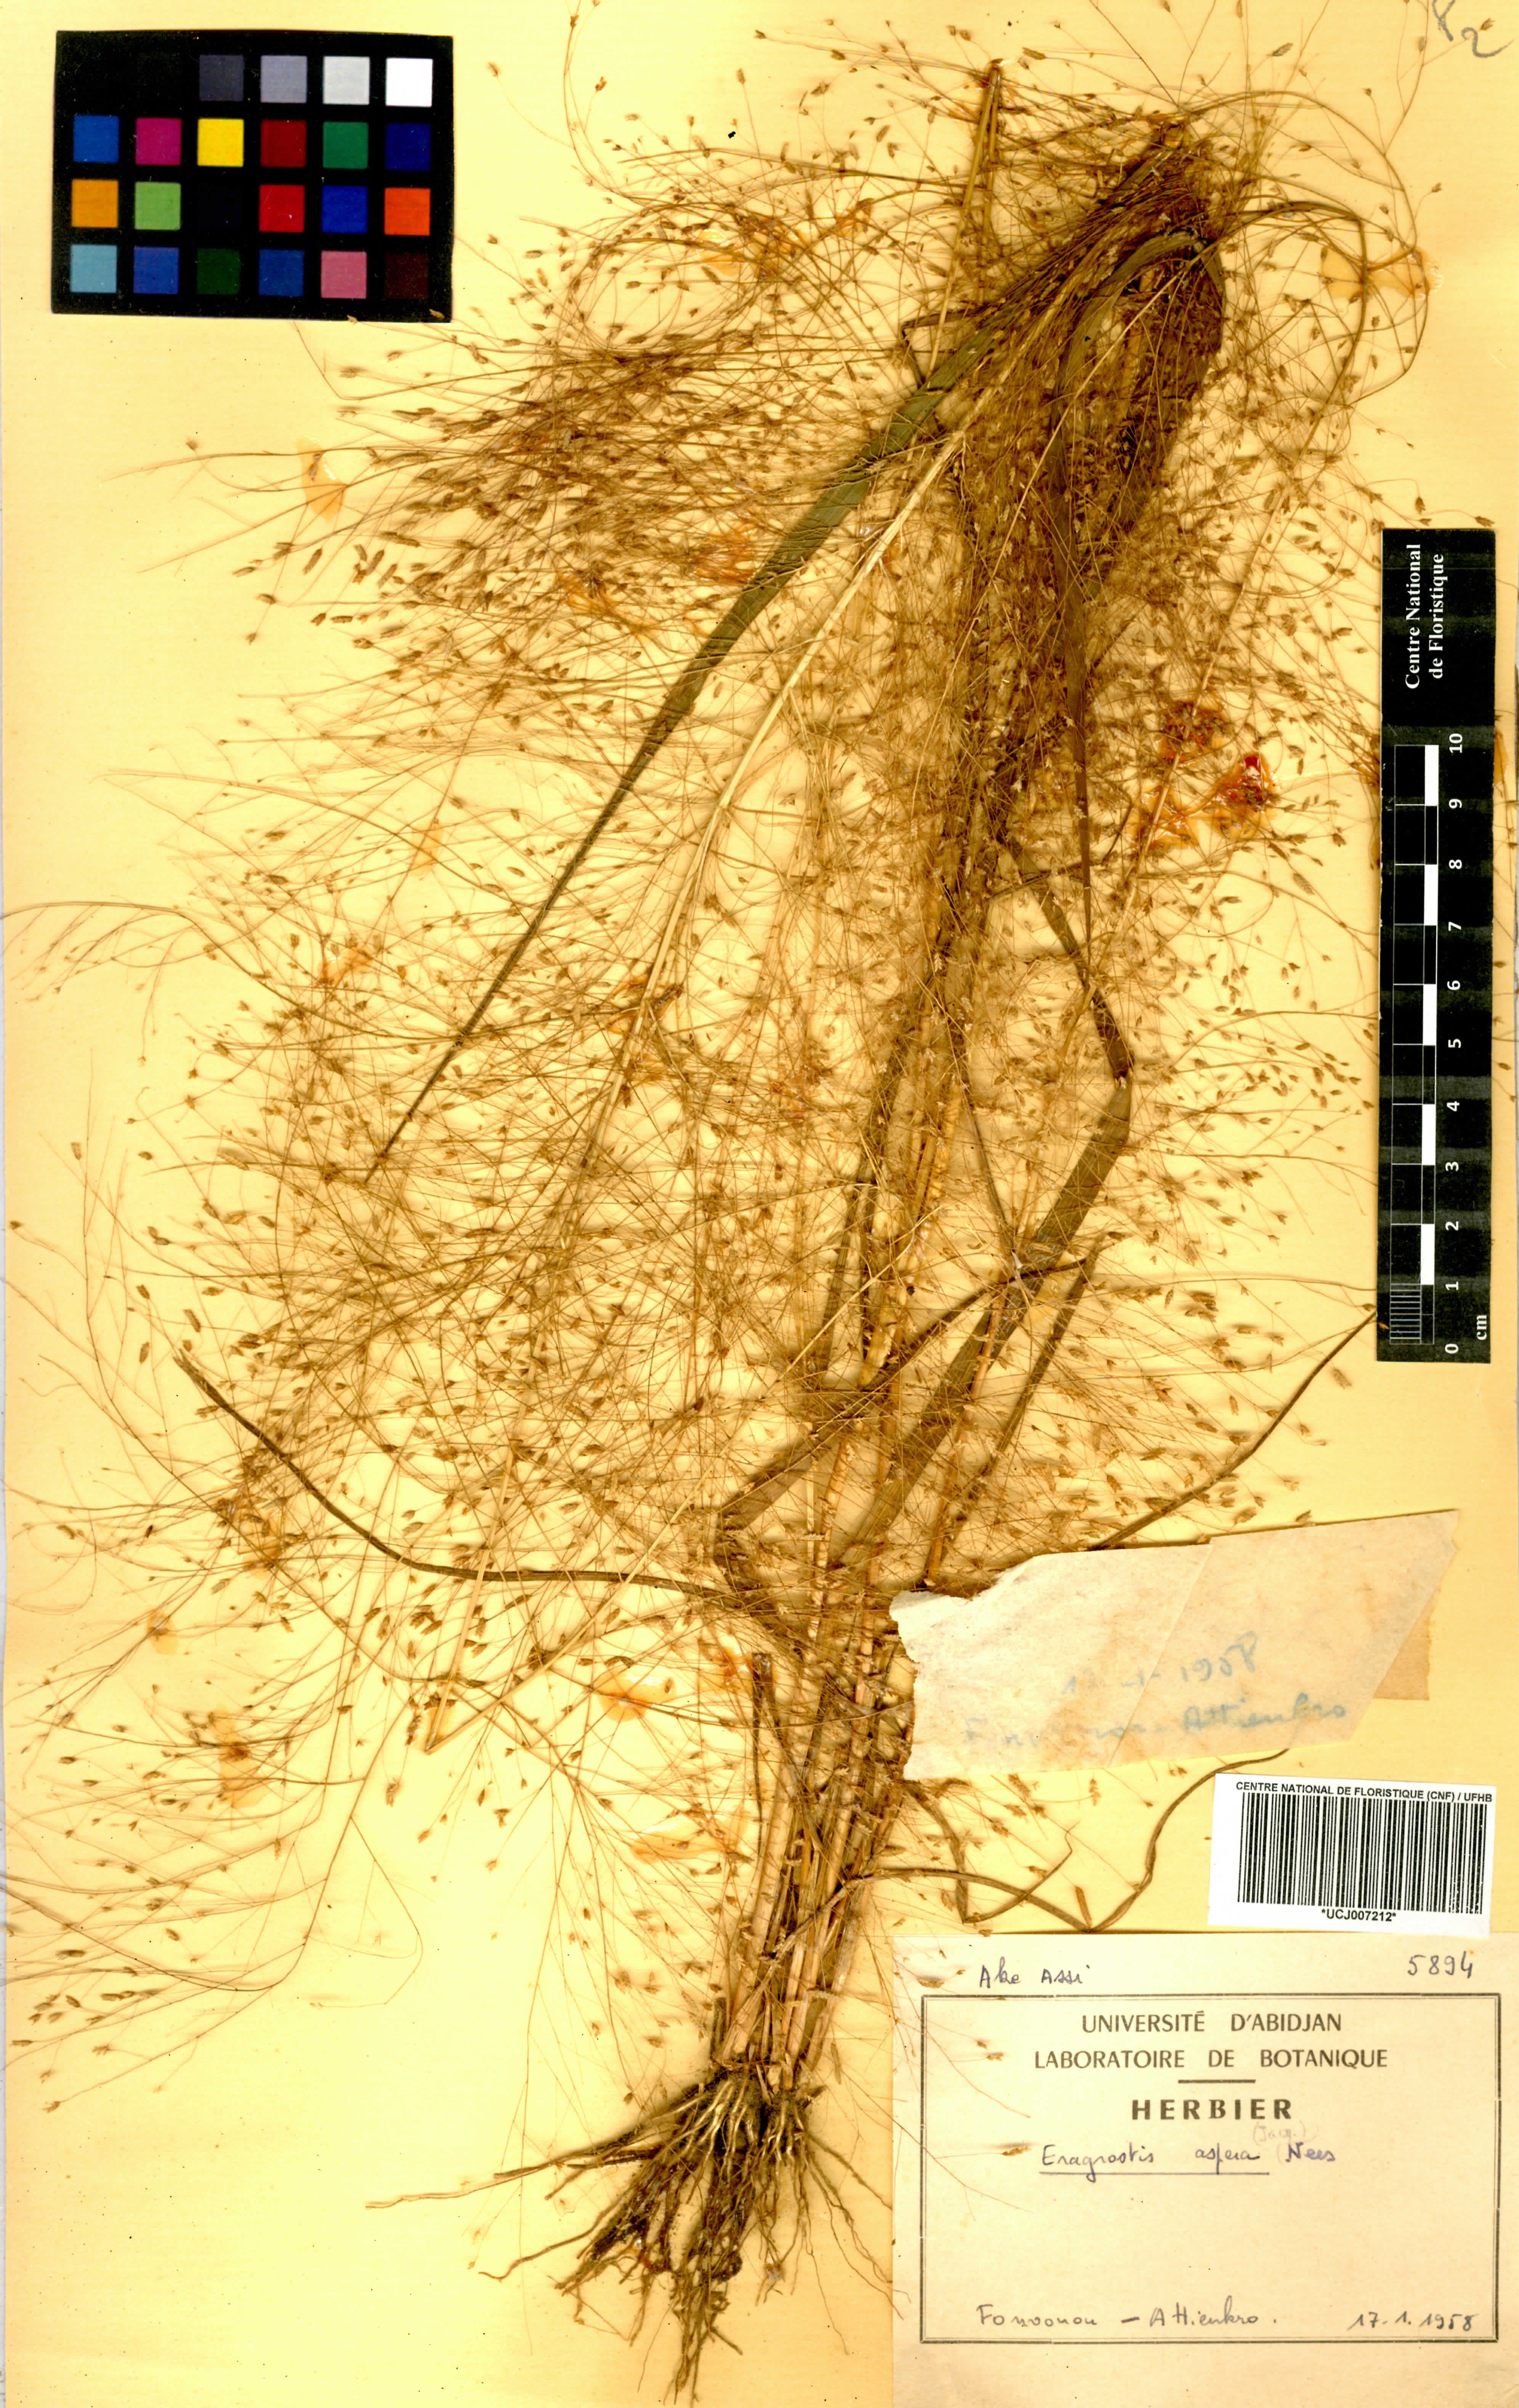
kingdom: Plantae
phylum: Tracheophyta
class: Liliopsida
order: Poales
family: Poaceae
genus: Eragrostis
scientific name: Eragrostis aspera
